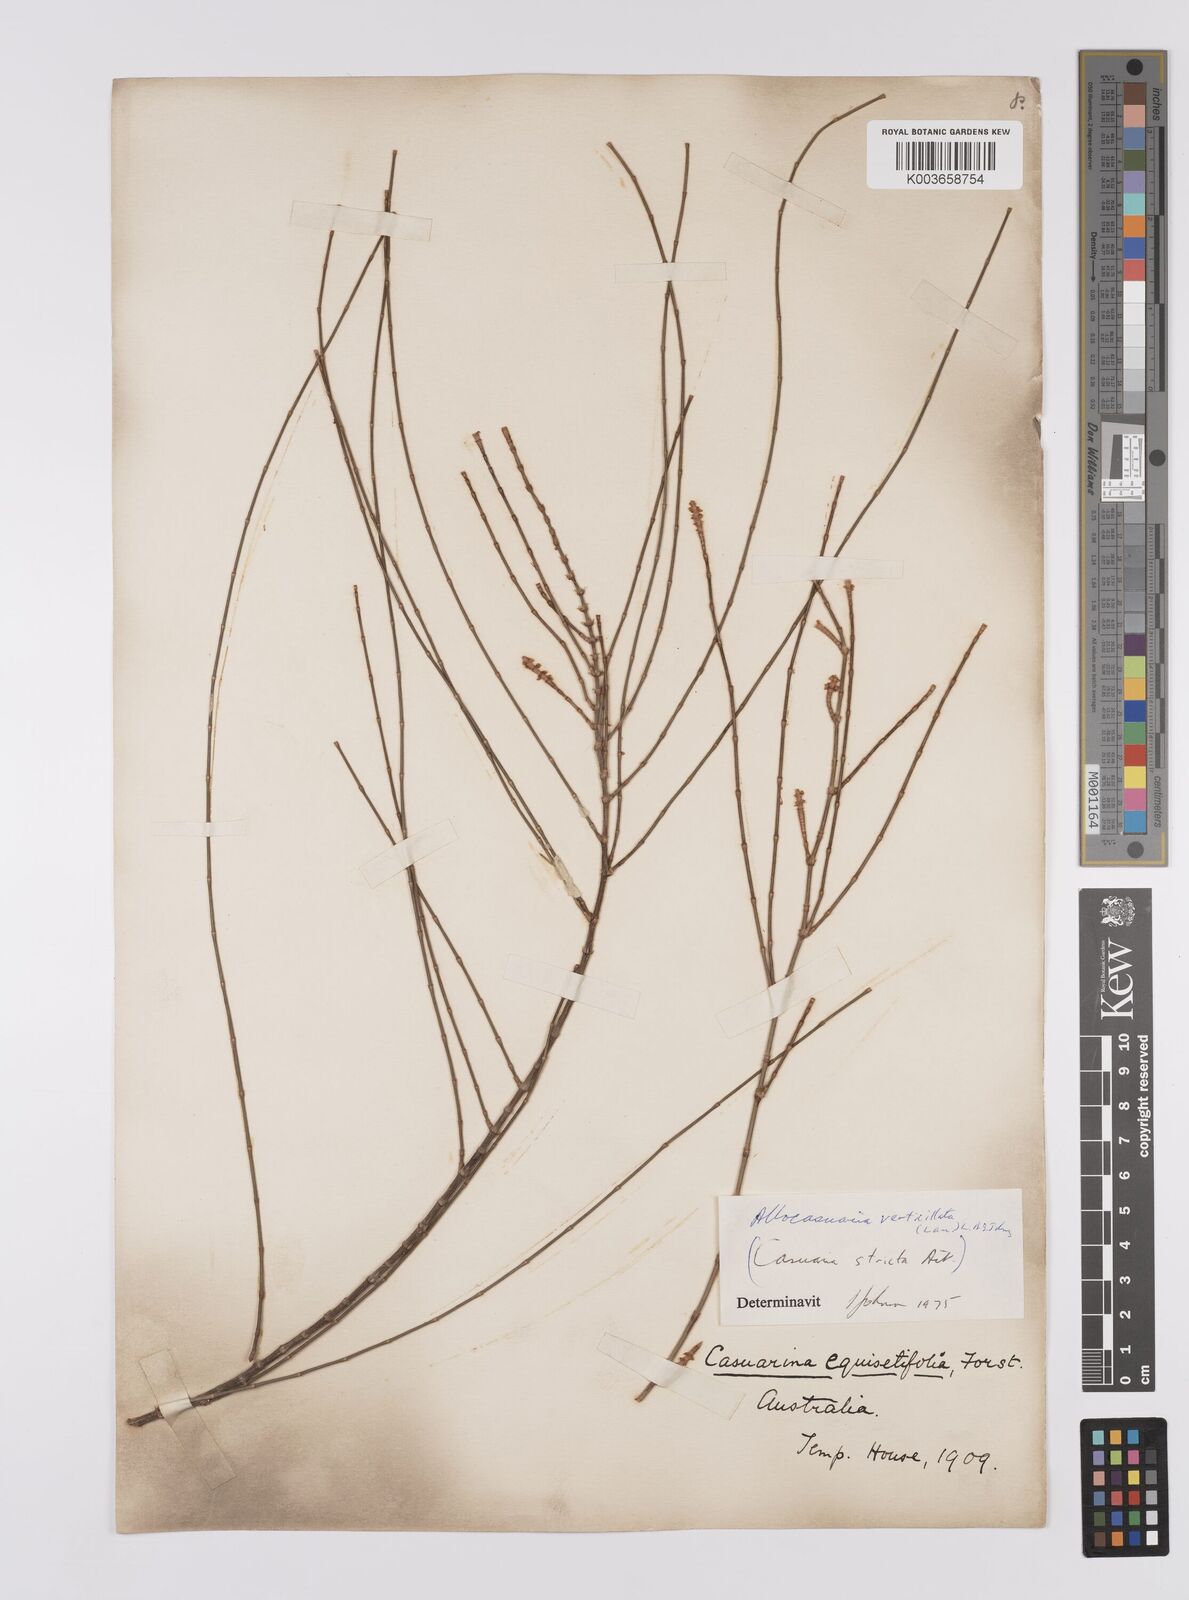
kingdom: Plantae
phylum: Tracheophyta
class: Magnoliopsida
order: Fagales
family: Casuarinaceae
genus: Allocasuarina
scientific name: Allocasuarina verticillata
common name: Drooping she-oak
